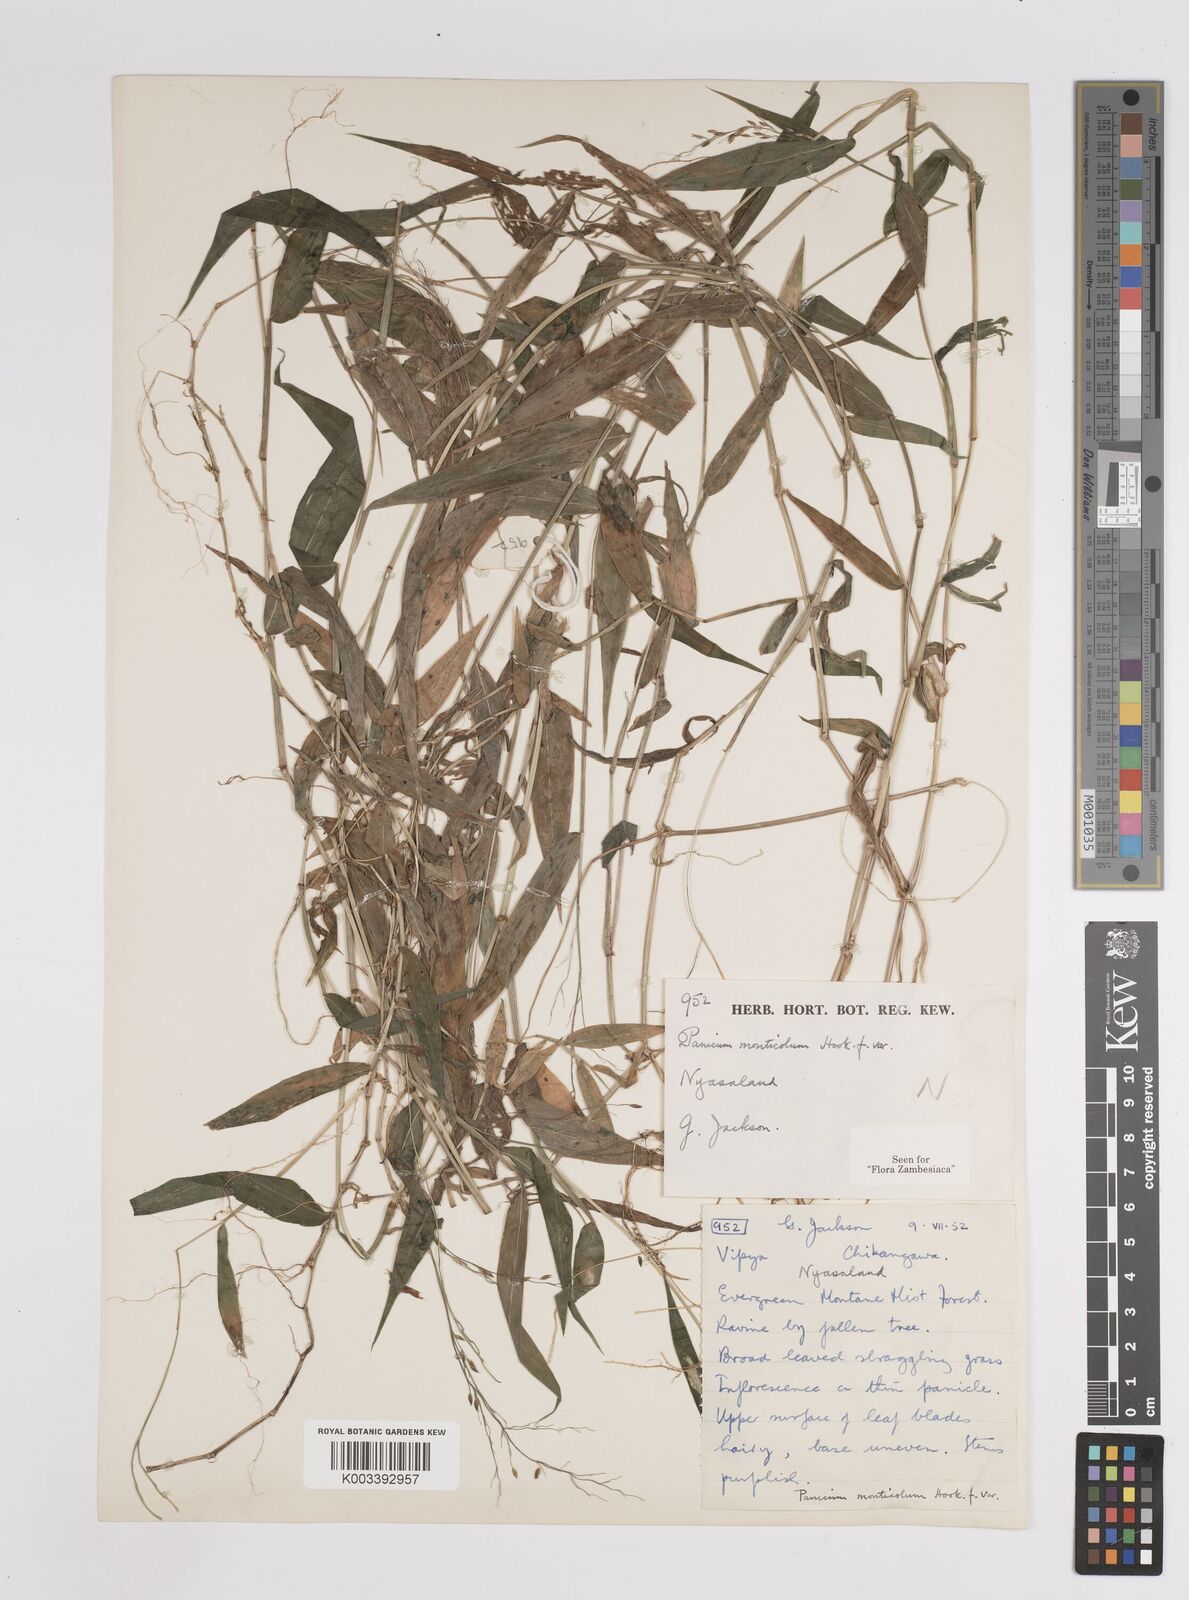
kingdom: Plantae
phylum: Tracheophyta
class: Liliopsida
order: Poales
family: Poaceae
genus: Panicum
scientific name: Panicum monticola
